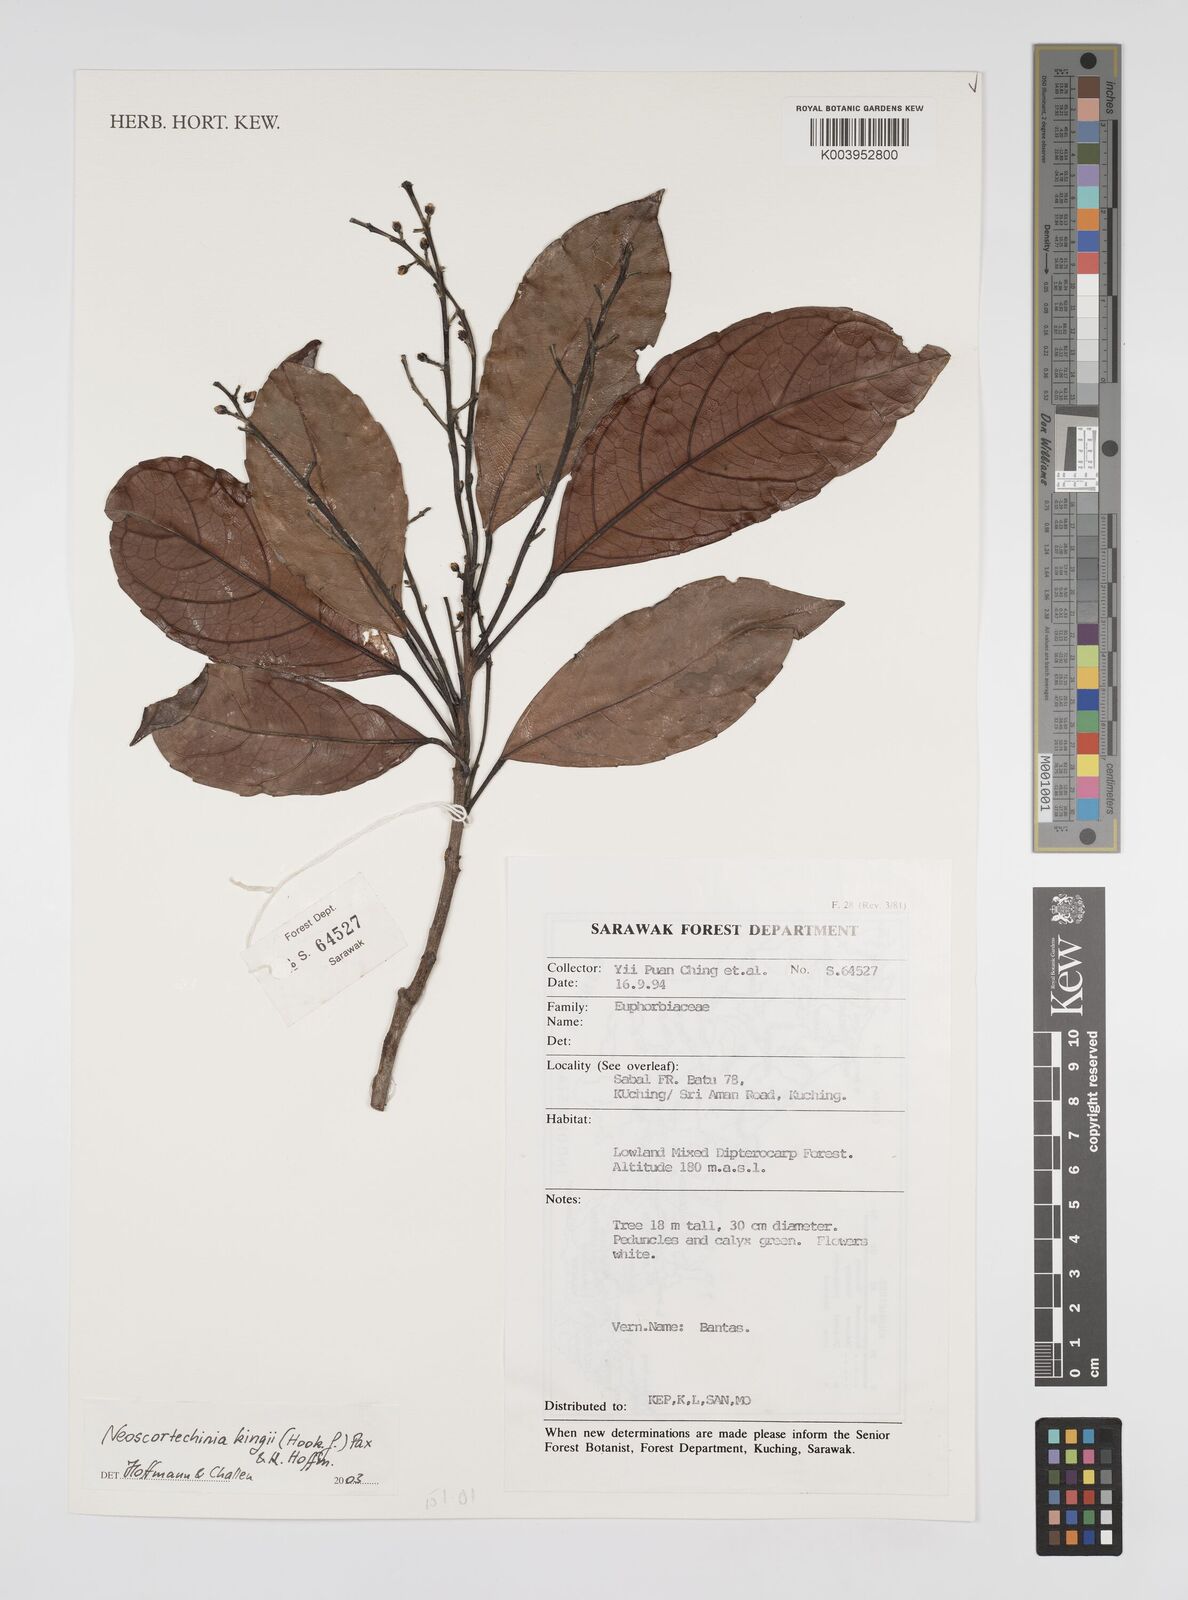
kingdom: Plantae
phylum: Tracheophyta
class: Magnoliopsida
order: Malpighiales
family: Euphorbiaceae
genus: Neoscortechinia
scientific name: Neoscortechinia kingii
